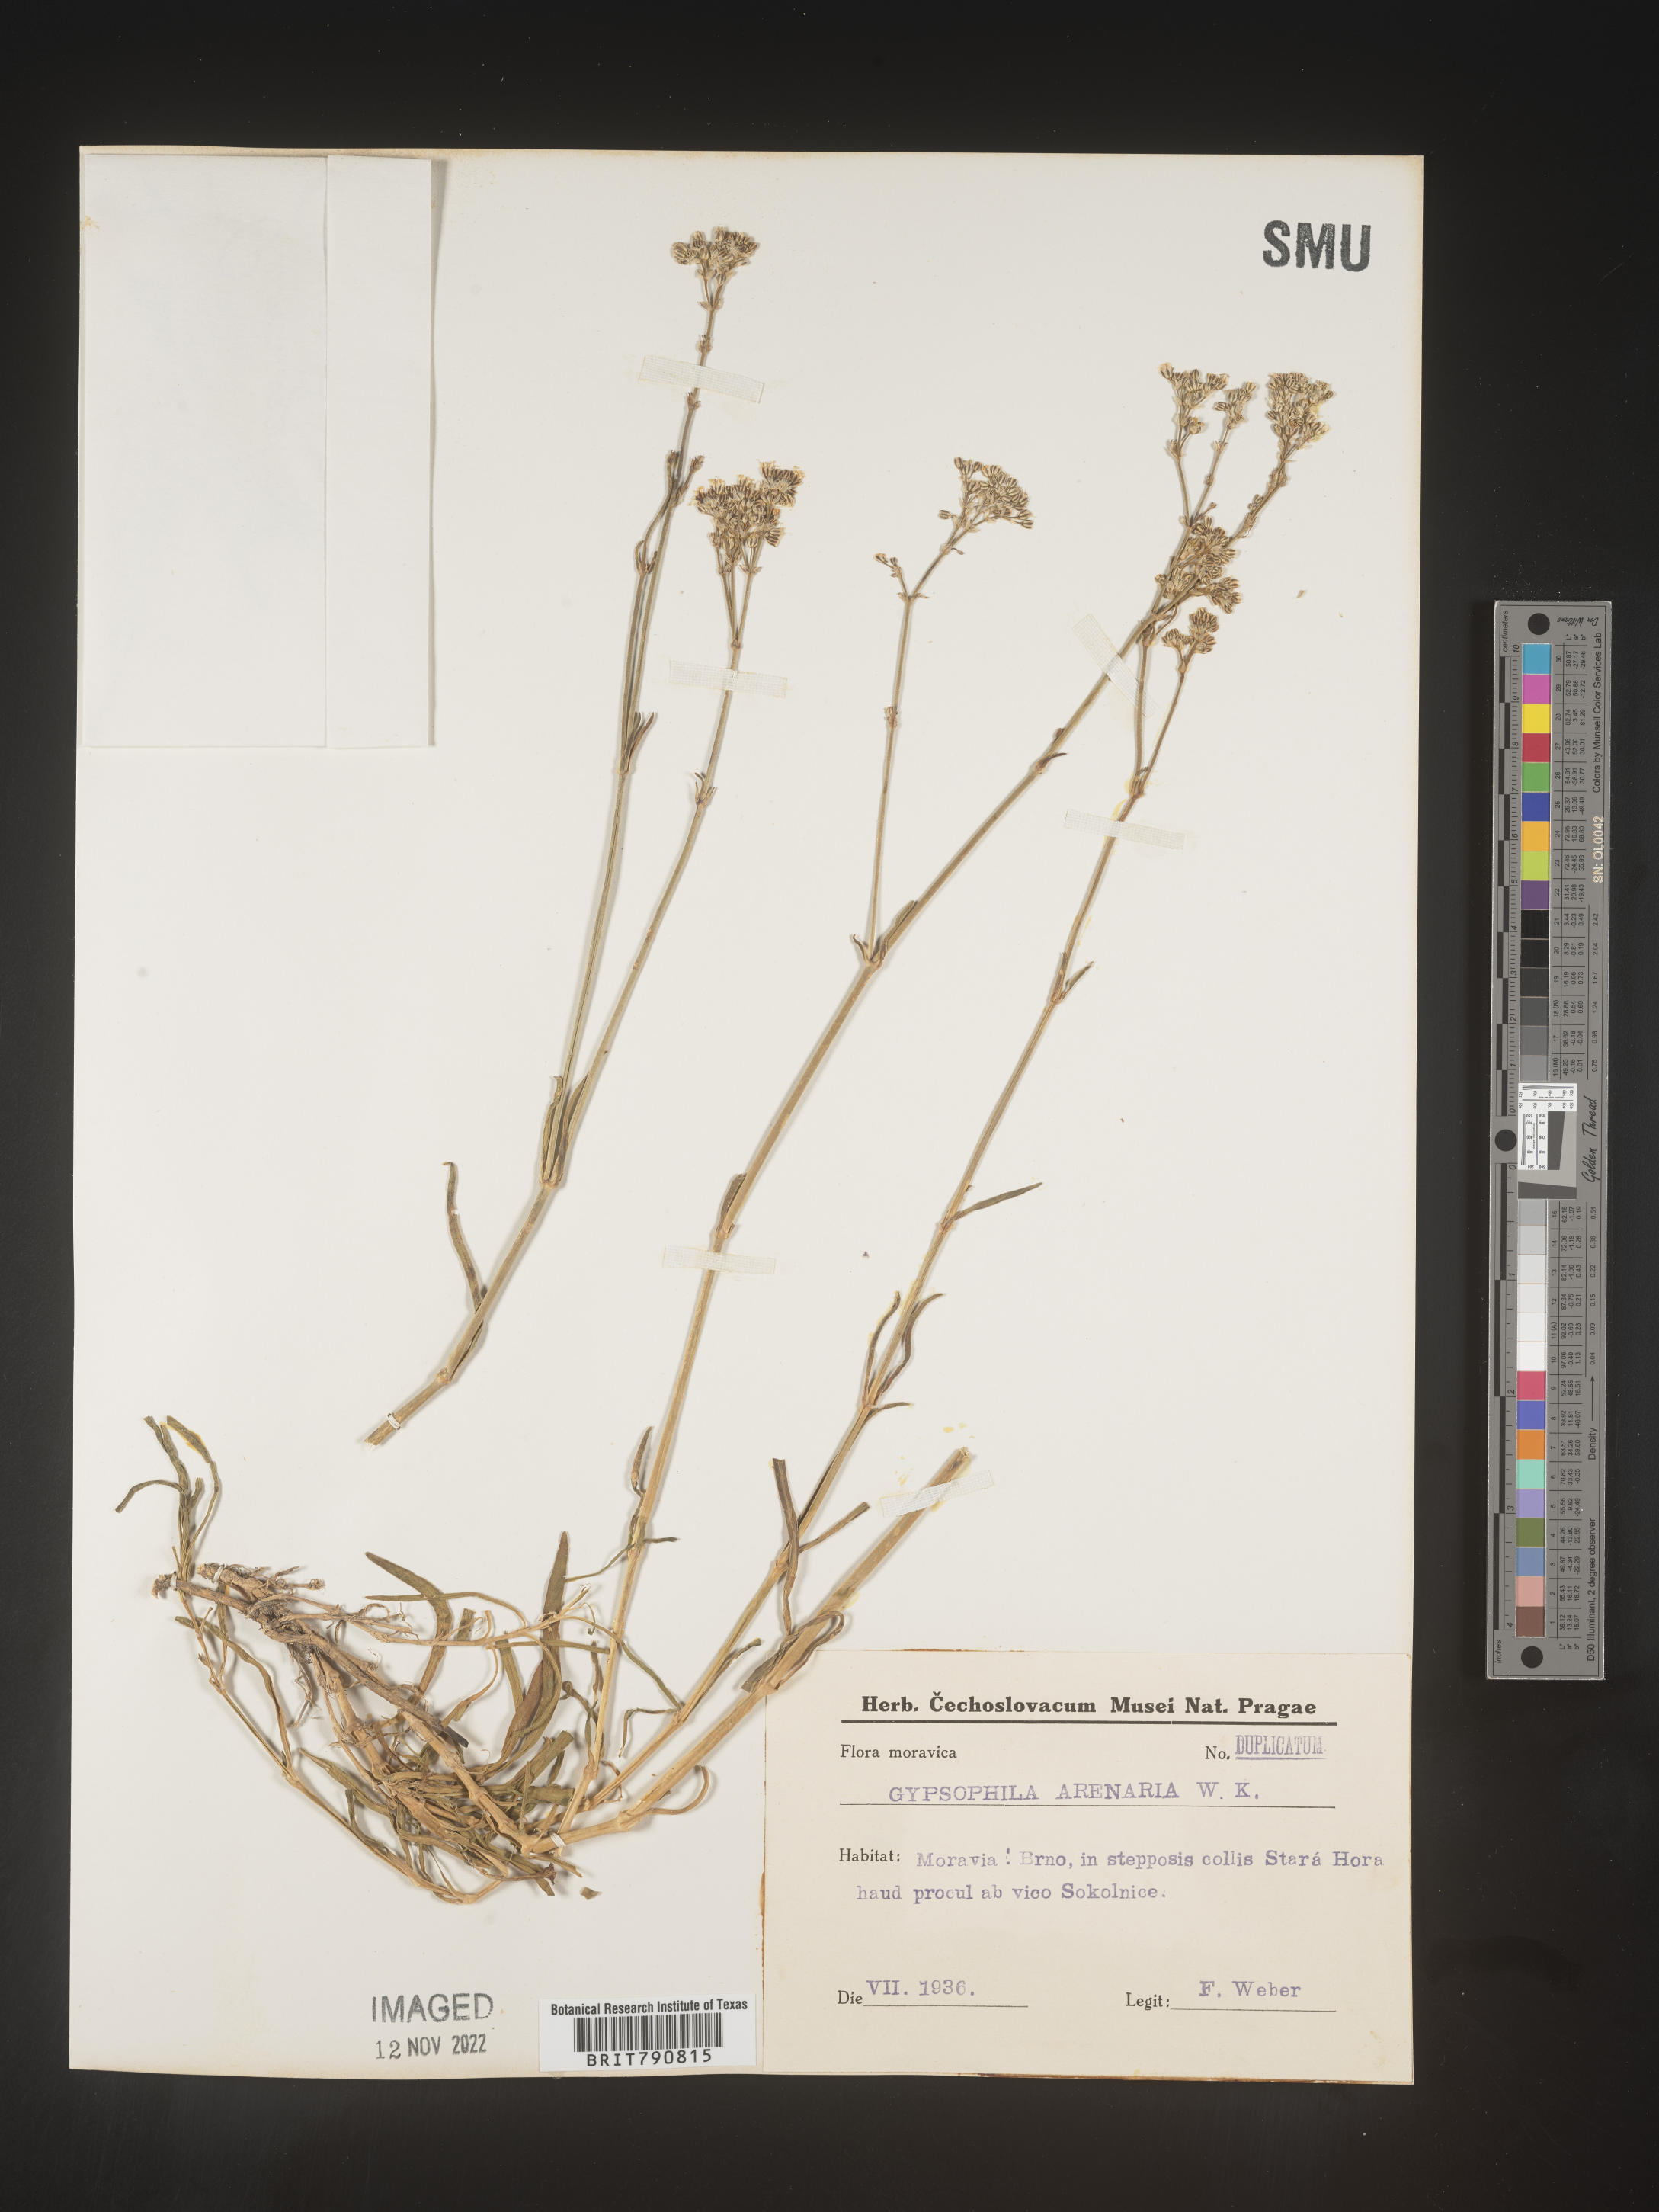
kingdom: Plantae
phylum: Tracheophyta
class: Magnoliopsida
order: Caryophyllales
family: Caryophyllaceae
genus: Gypsophila
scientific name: Gypsophila
